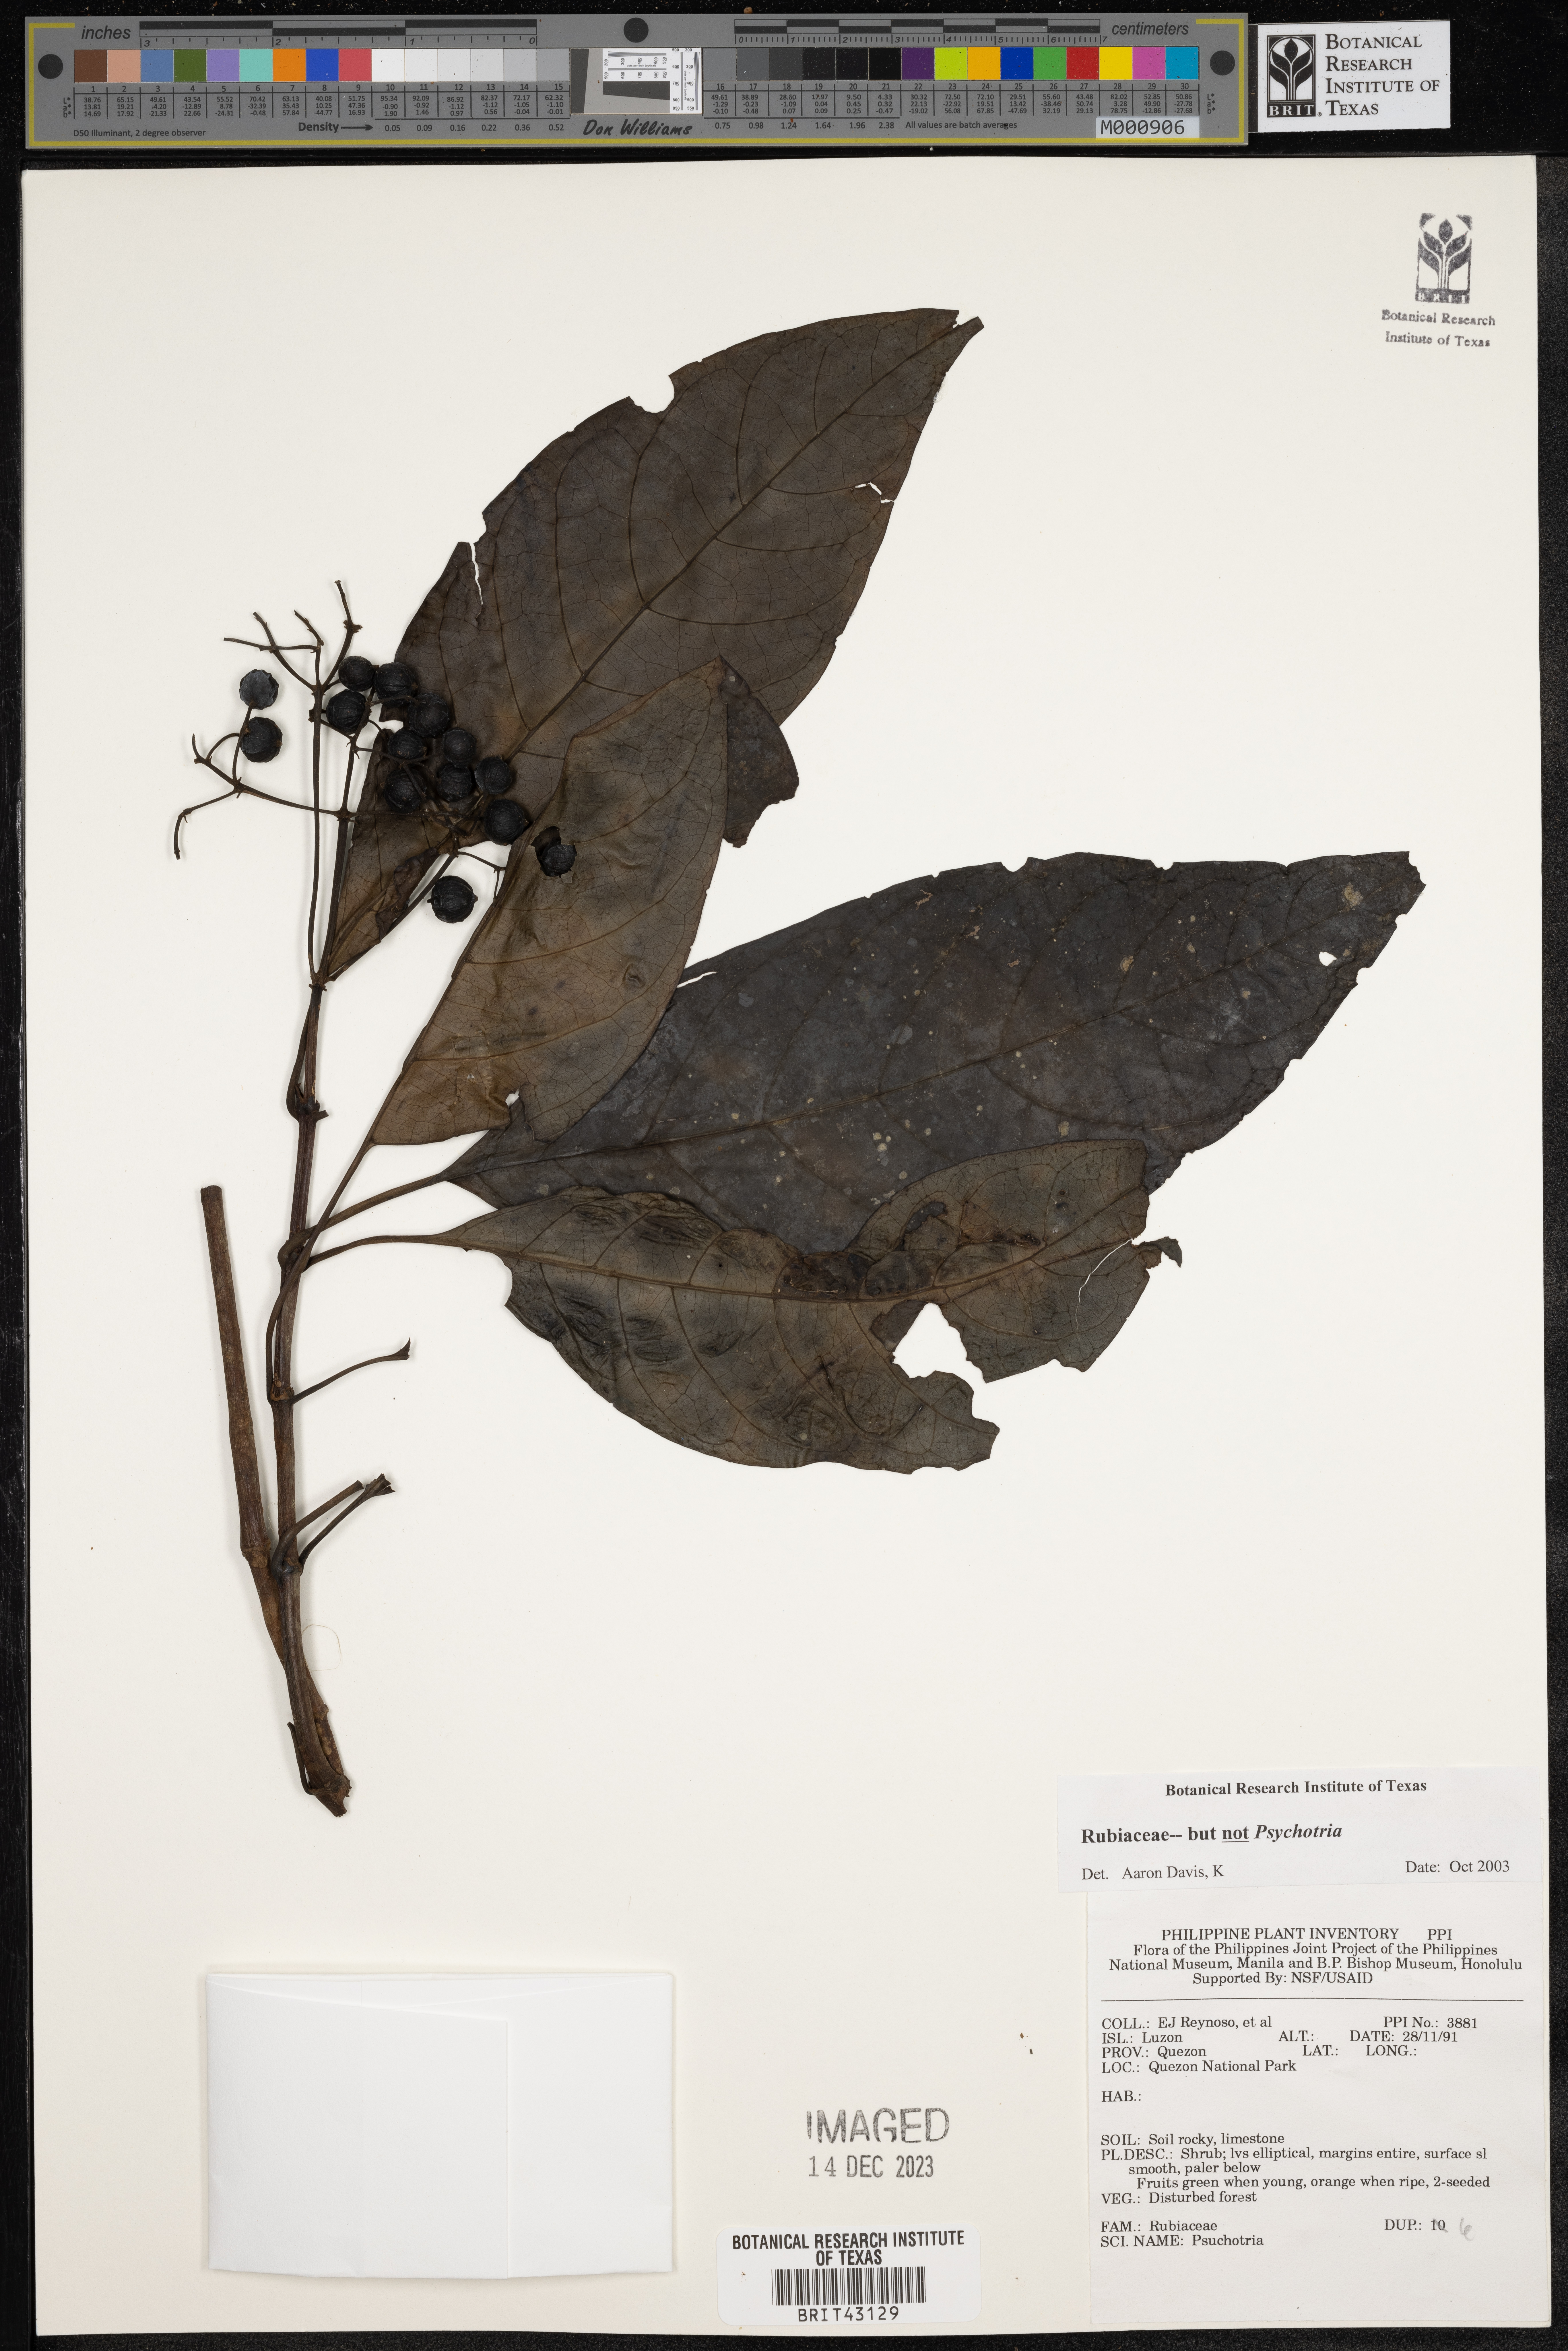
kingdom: Plantae
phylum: Tracheophyta
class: Magnoliopsida
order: Gentianales
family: Rubiaceae
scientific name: Rubiaceae
